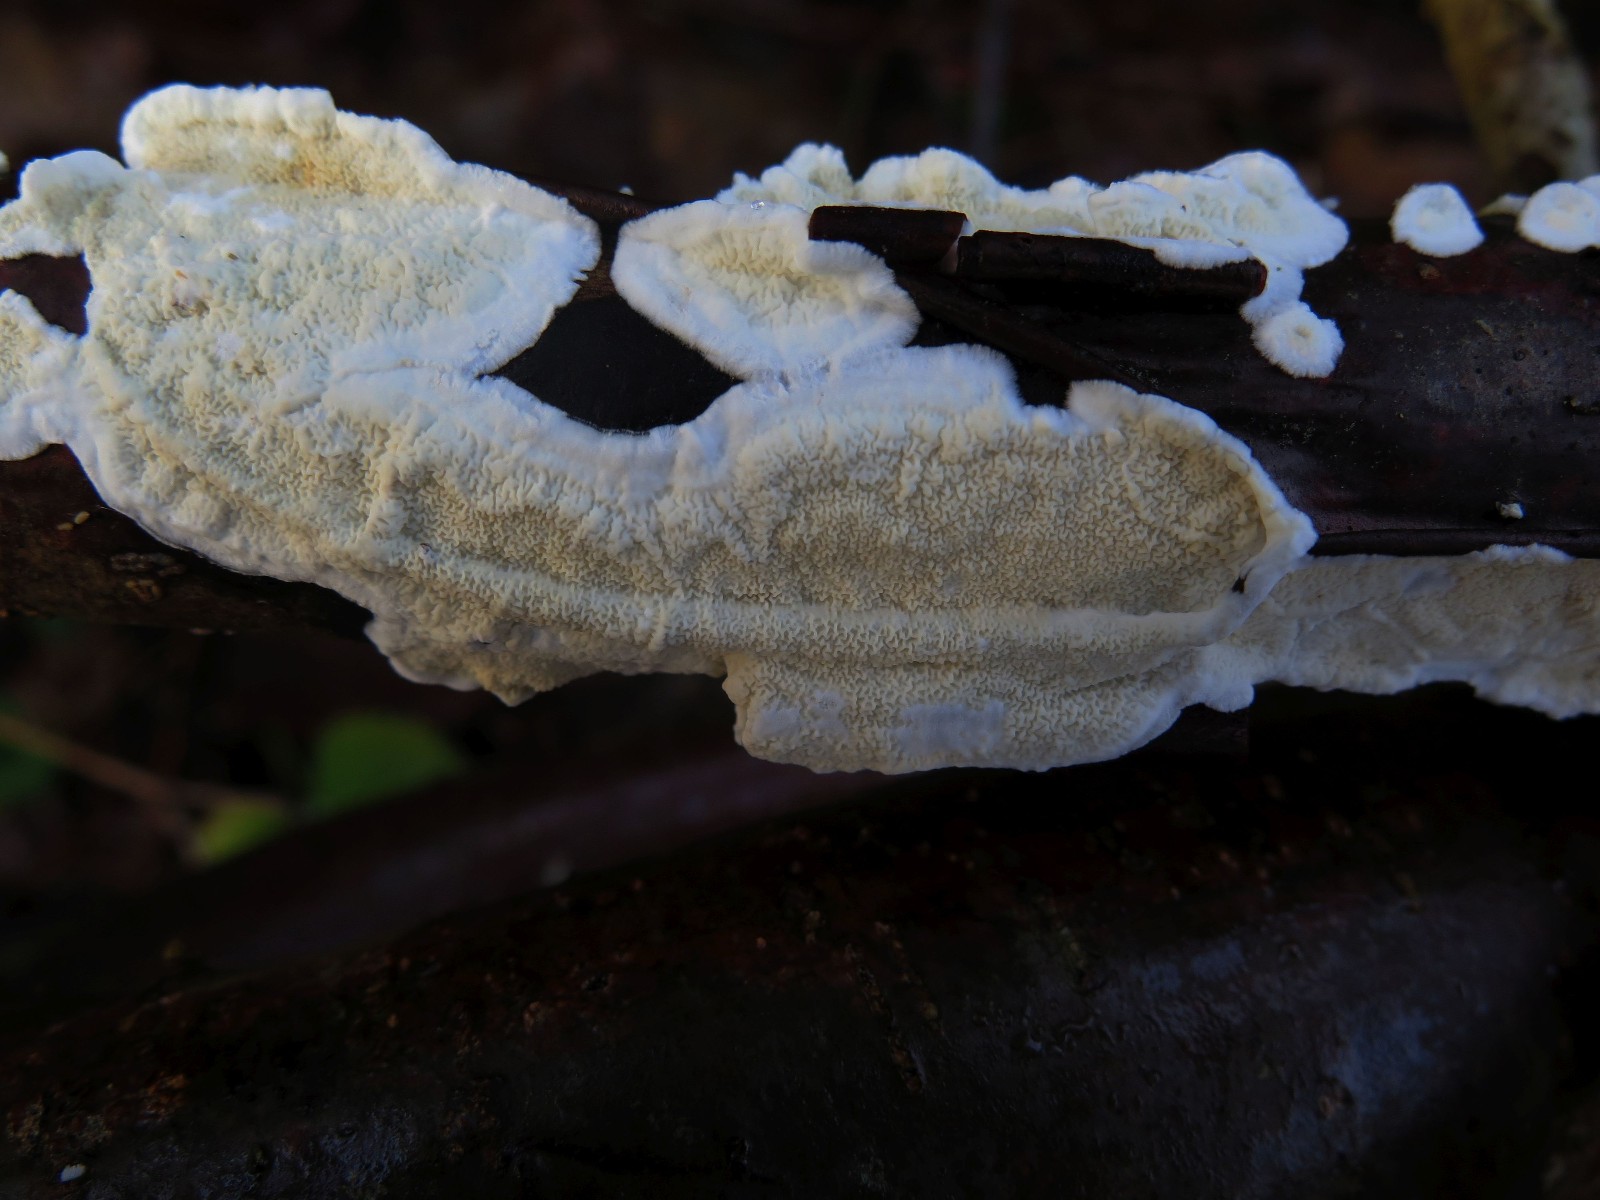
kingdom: Fungi
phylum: Basidiomycota
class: Agaricomycetes
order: Polyporales
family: Irpicaceae
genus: Byssomerulius
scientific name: Byssomerulius corium
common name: læder-åresvamp
